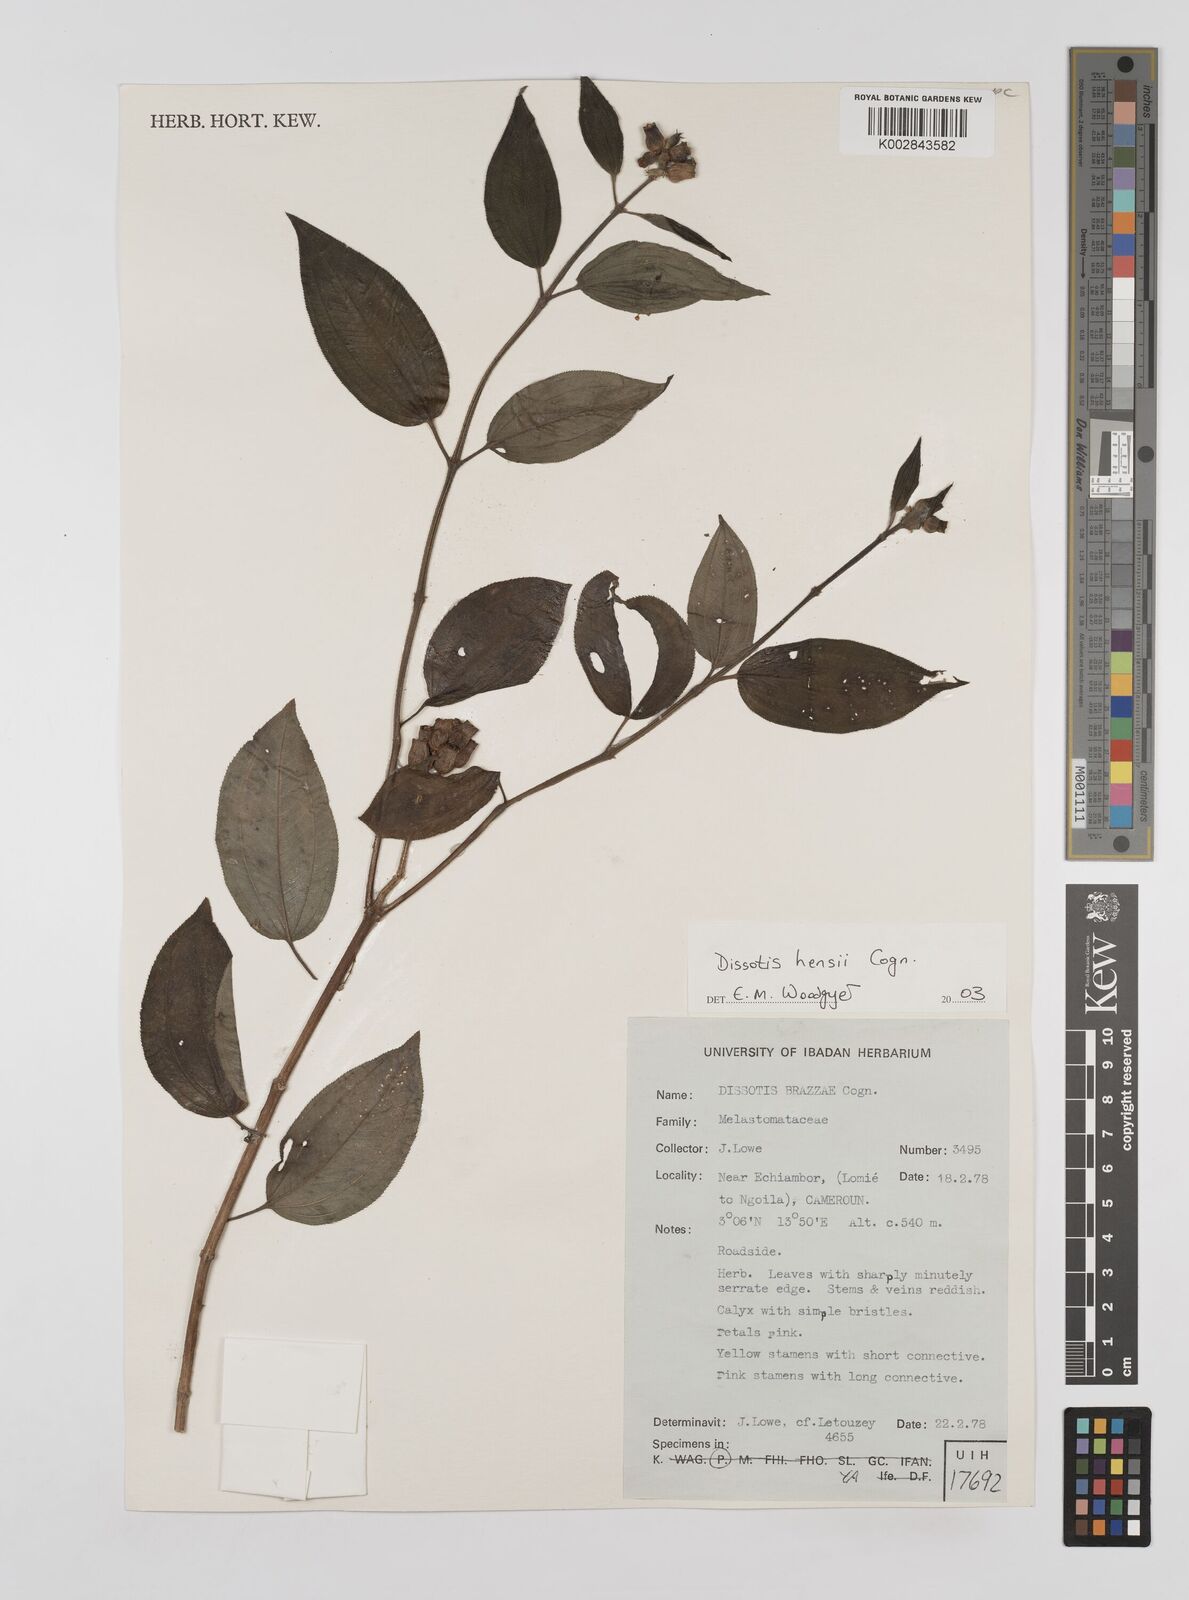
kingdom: Plantae
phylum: Tracheophyta
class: Magnoliopsida
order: Myrtales
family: Melastomataceae
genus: Dupineta
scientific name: Dupineta hensii
